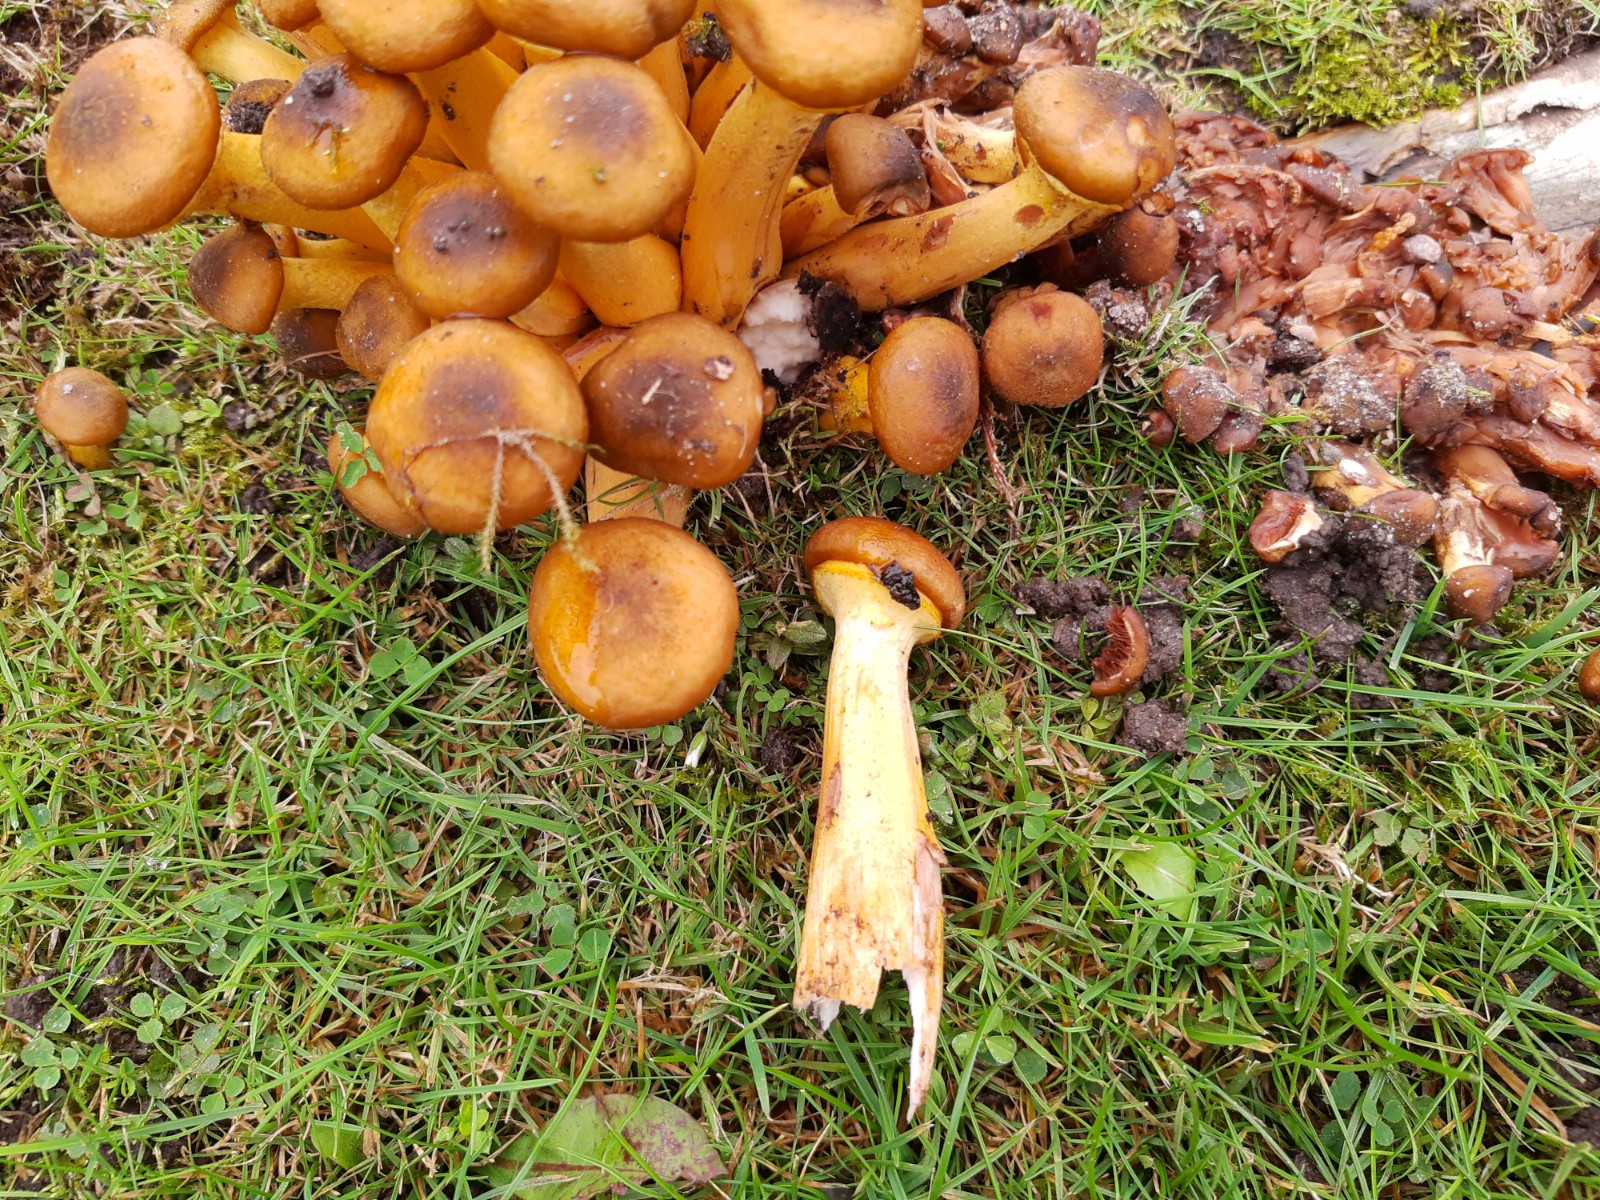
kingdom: Fungi
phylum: Basidiomycota
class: Agaricomycetes
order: Agaricales
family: Physalacriaceae
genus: Armillaria
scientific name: Armillaria lutea
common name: køllestokket honningsvamp
